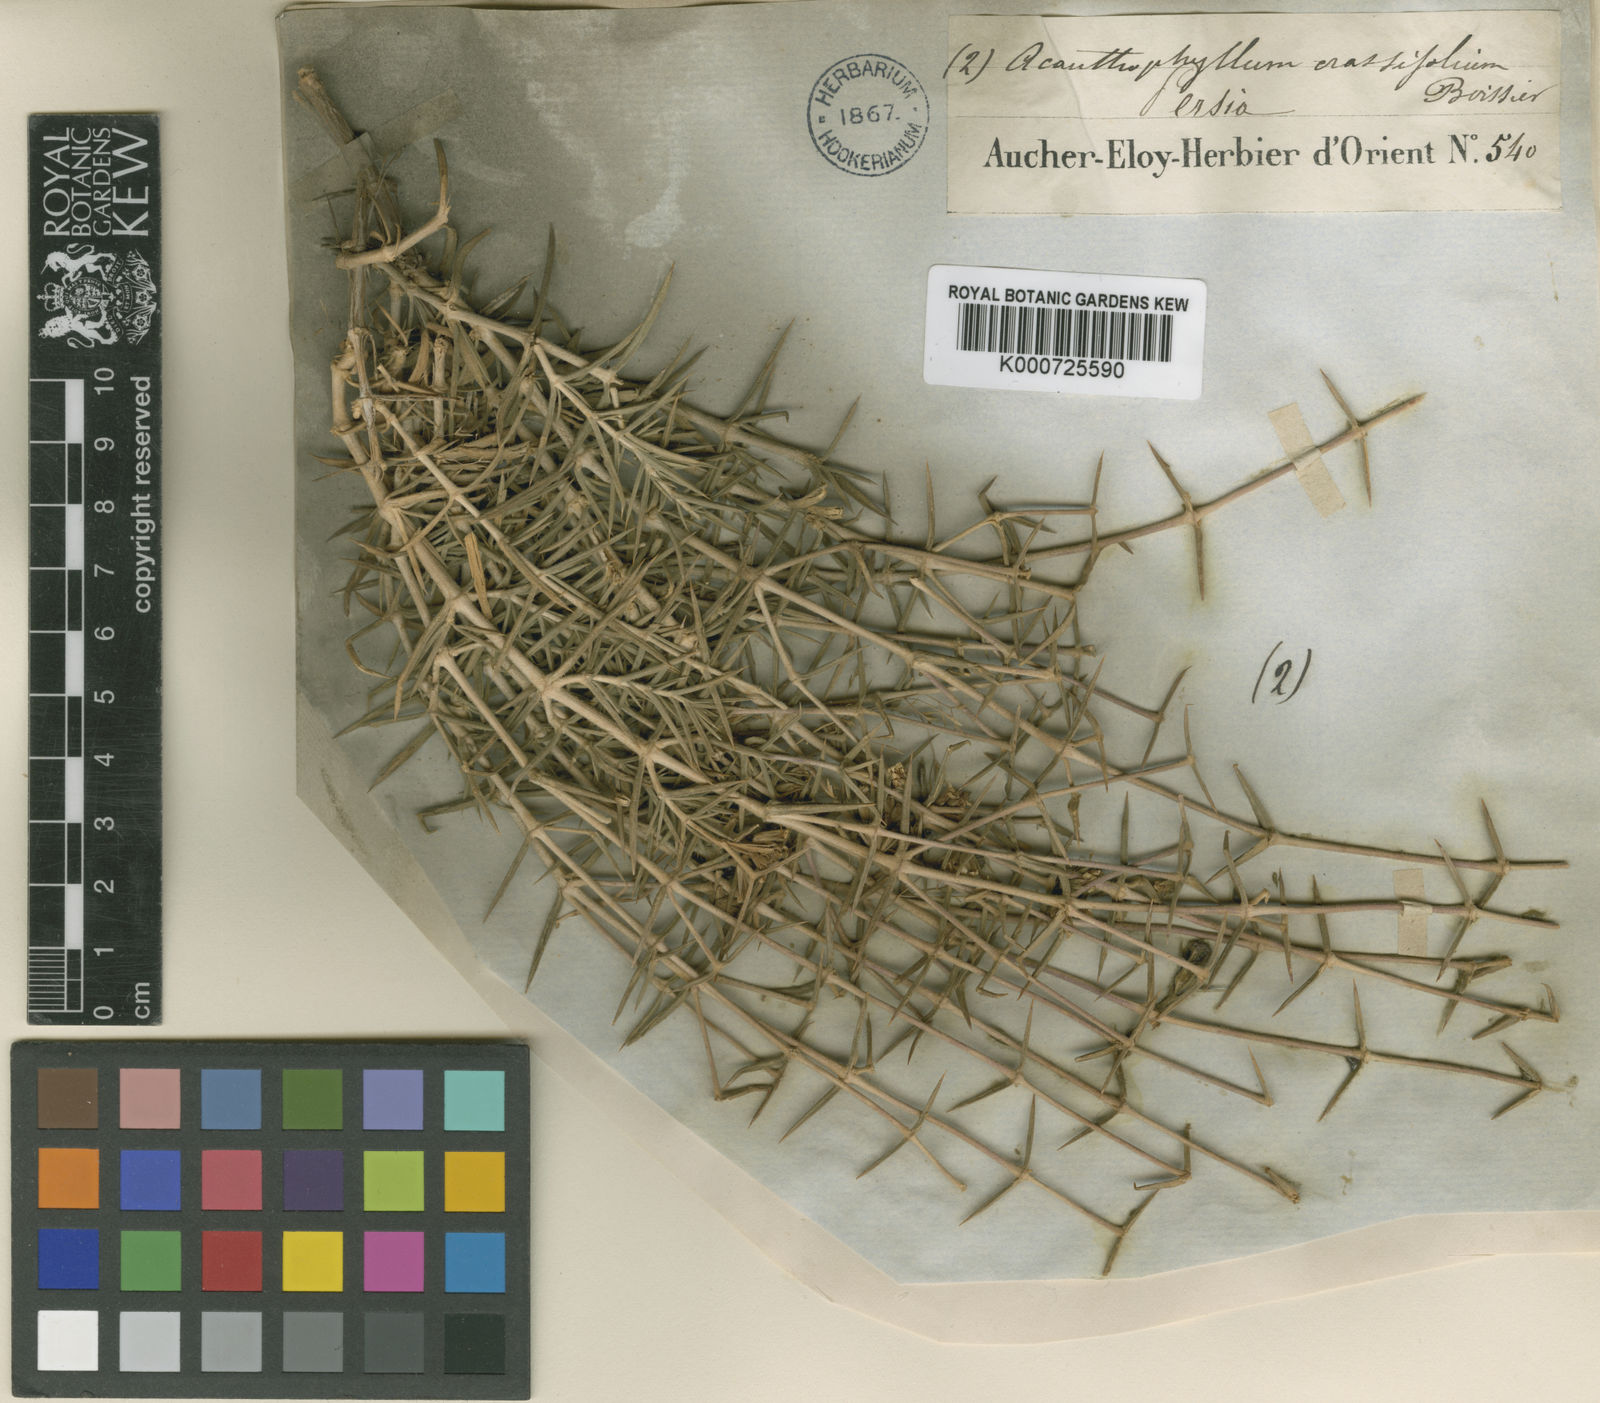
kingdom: Plantae
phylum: Tracheophyta
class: Magnoliopsida
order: Caryophyllales
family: Caryophyllaceae
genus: Acanthophyllum
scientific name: Acanthophyllum crassifolium
